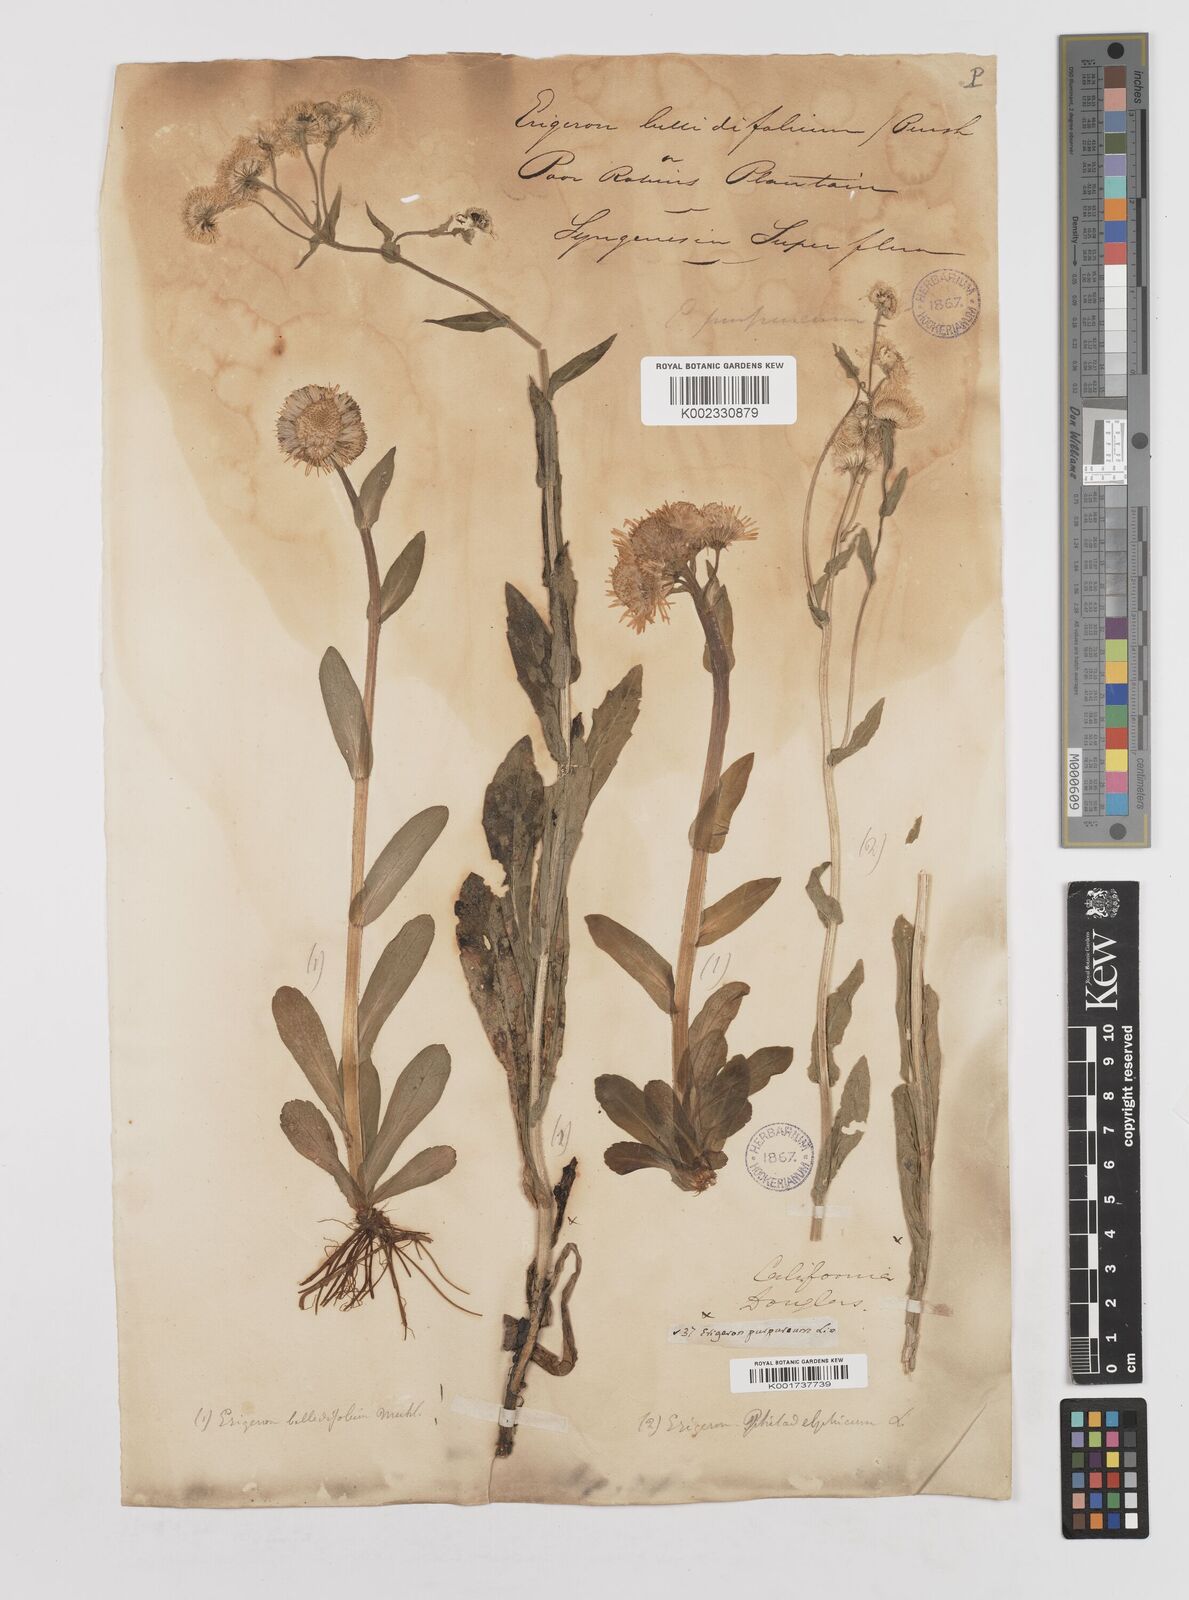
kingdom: Plantae
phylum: Tracheophyta
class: Magnoliopsida
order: Asterales
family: Asteraceae
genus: Erigeron
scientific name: Erigeron pulchellus
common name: Hairy fleabane
